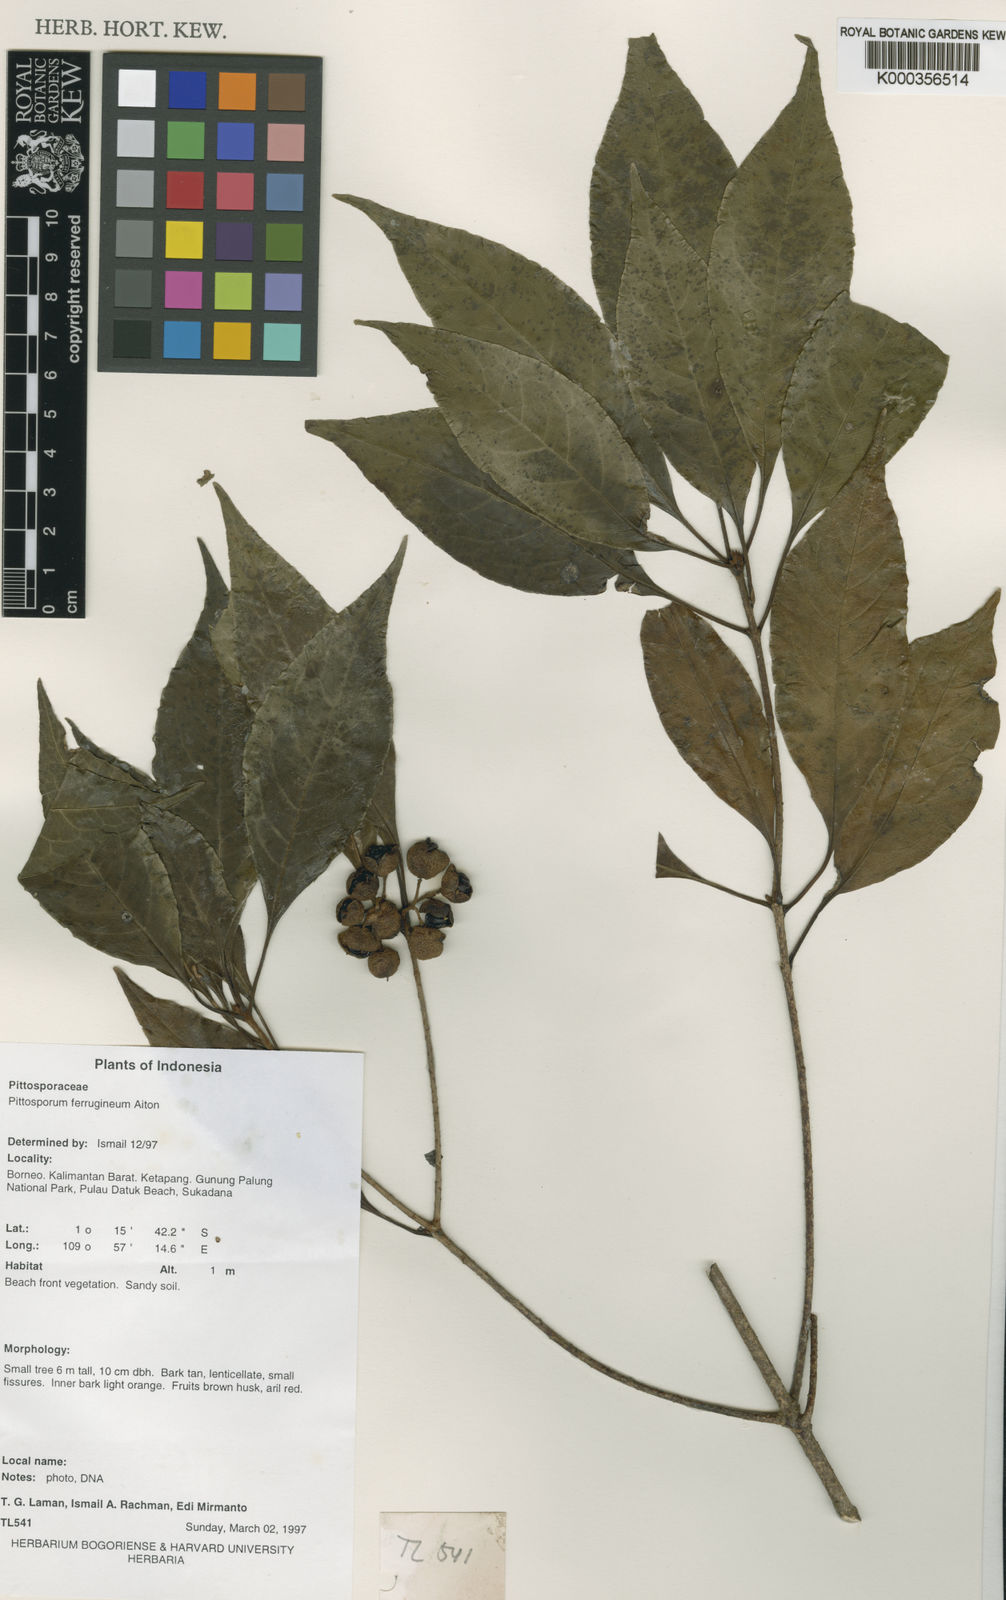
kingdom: Plantae
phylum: Tracheophyta
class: Magnoliopsida
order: Apiales
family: Pittosporaceae
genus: Pittosporum
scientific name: Pittosporum ferrugineum
